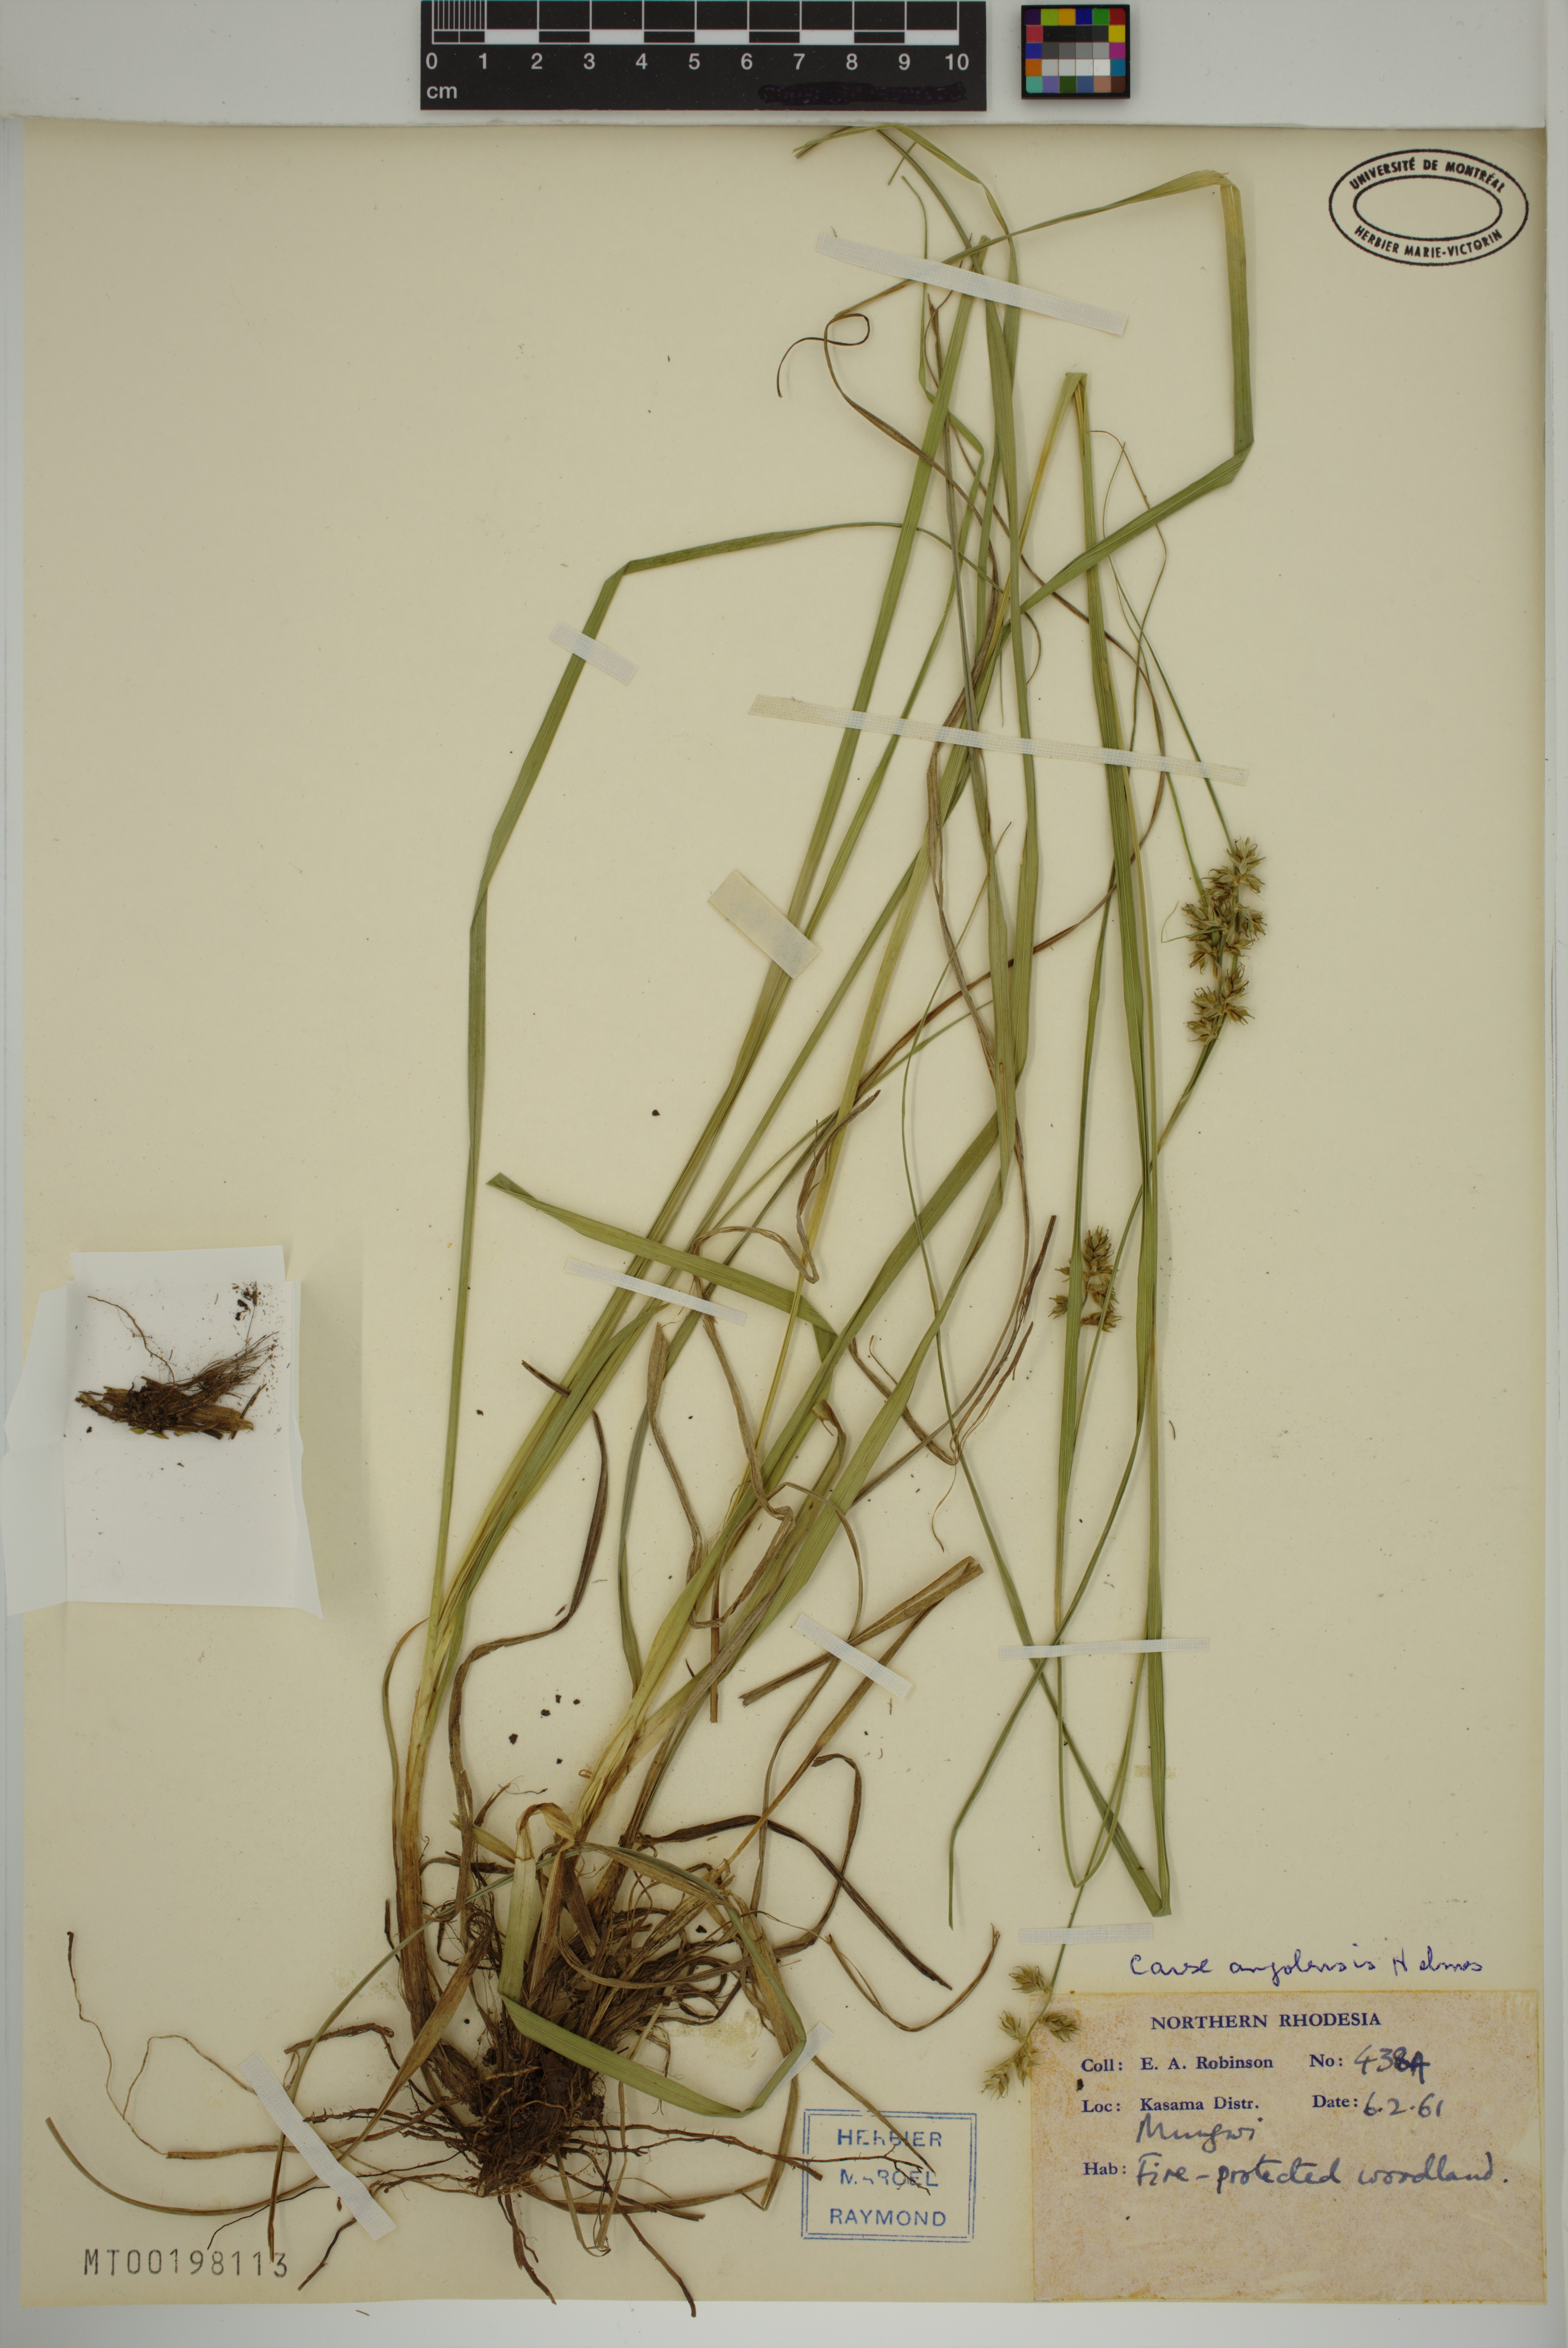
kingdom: Plantae
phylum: Tracheophyta
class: Liliopsida
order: Poales
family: Cyperaceae
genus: Carex
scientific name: Carex angolensis
